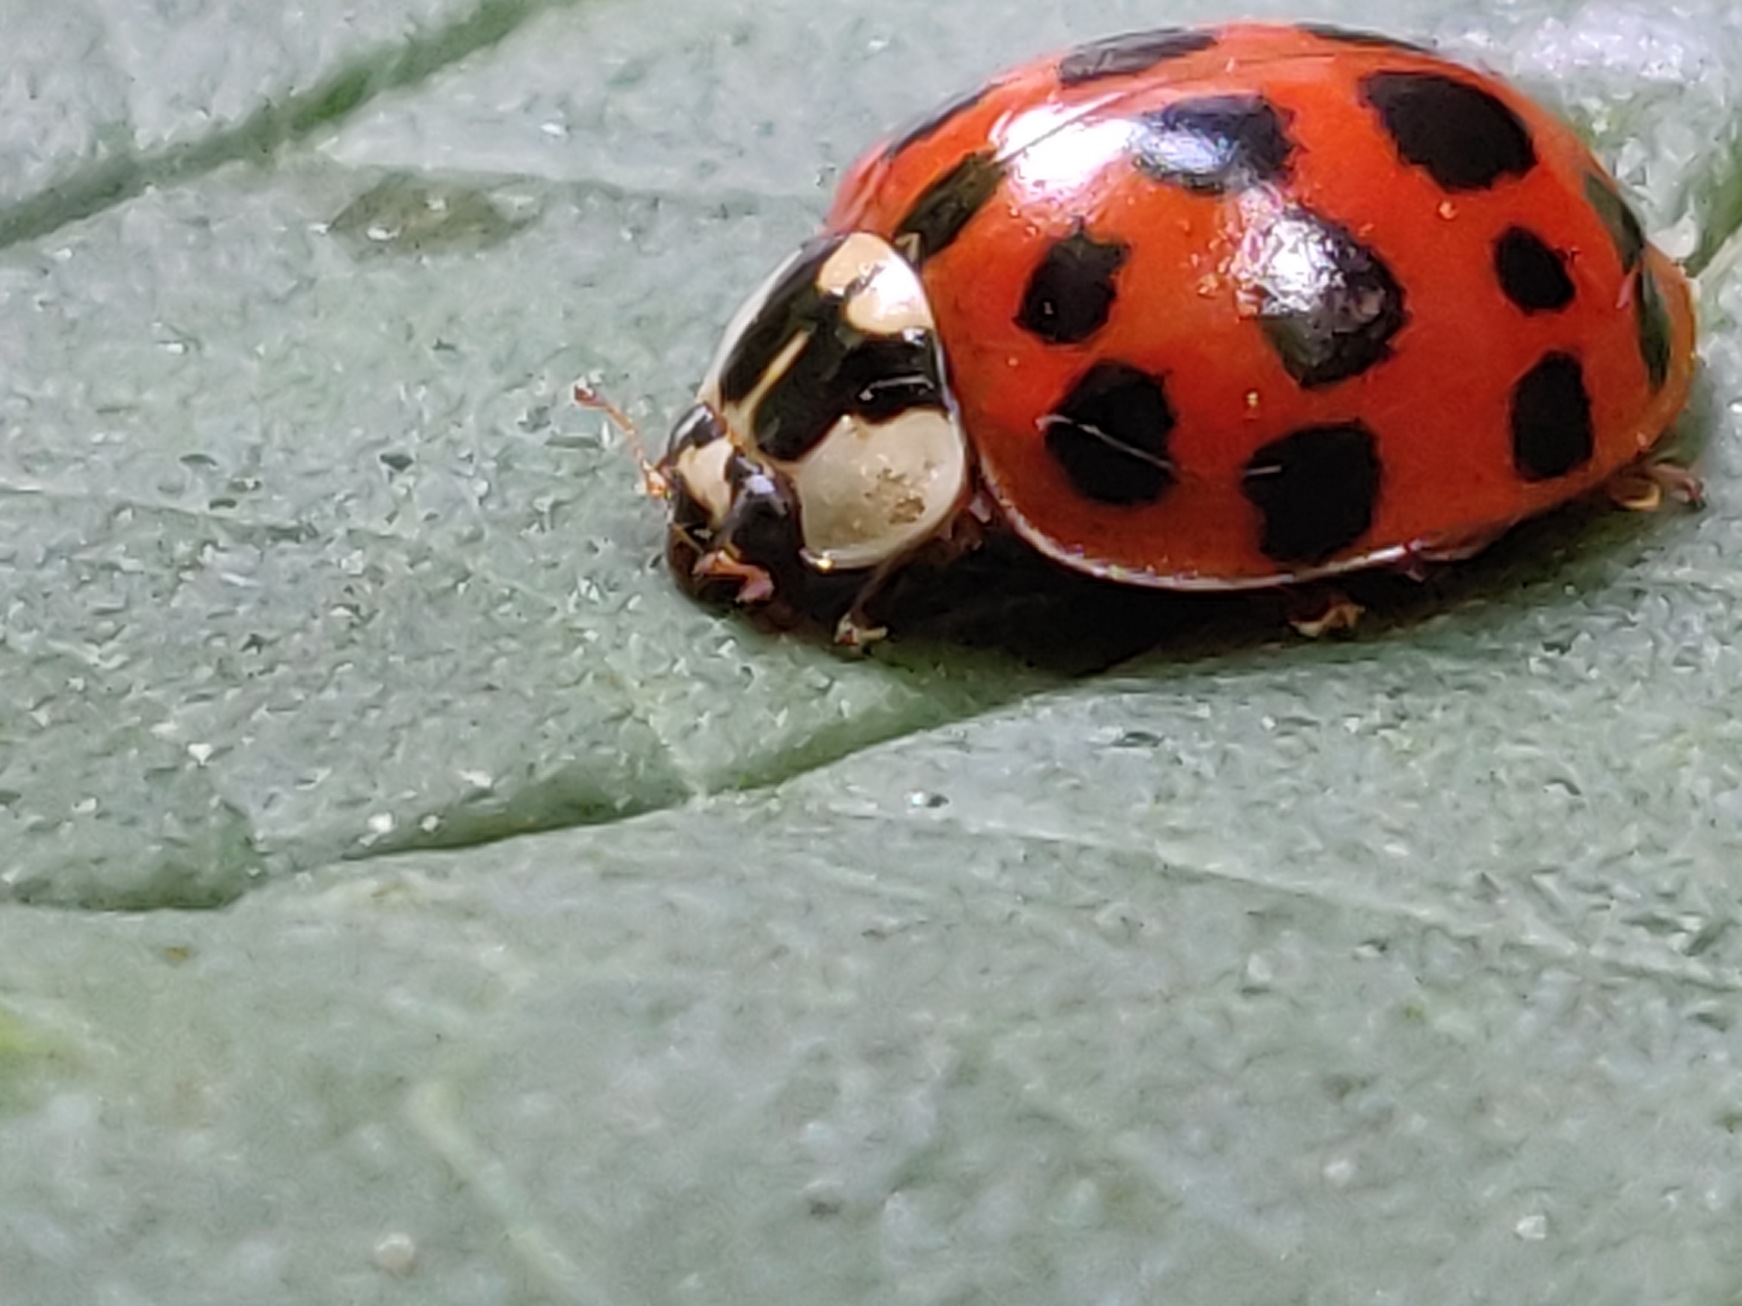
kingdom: Animalia
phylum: Arthropoda
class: Insecta
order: Coleoptera
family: Coccinellidae
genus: Harmonia
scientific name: Harmonia axyridis
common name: Harlekinmariehøne
